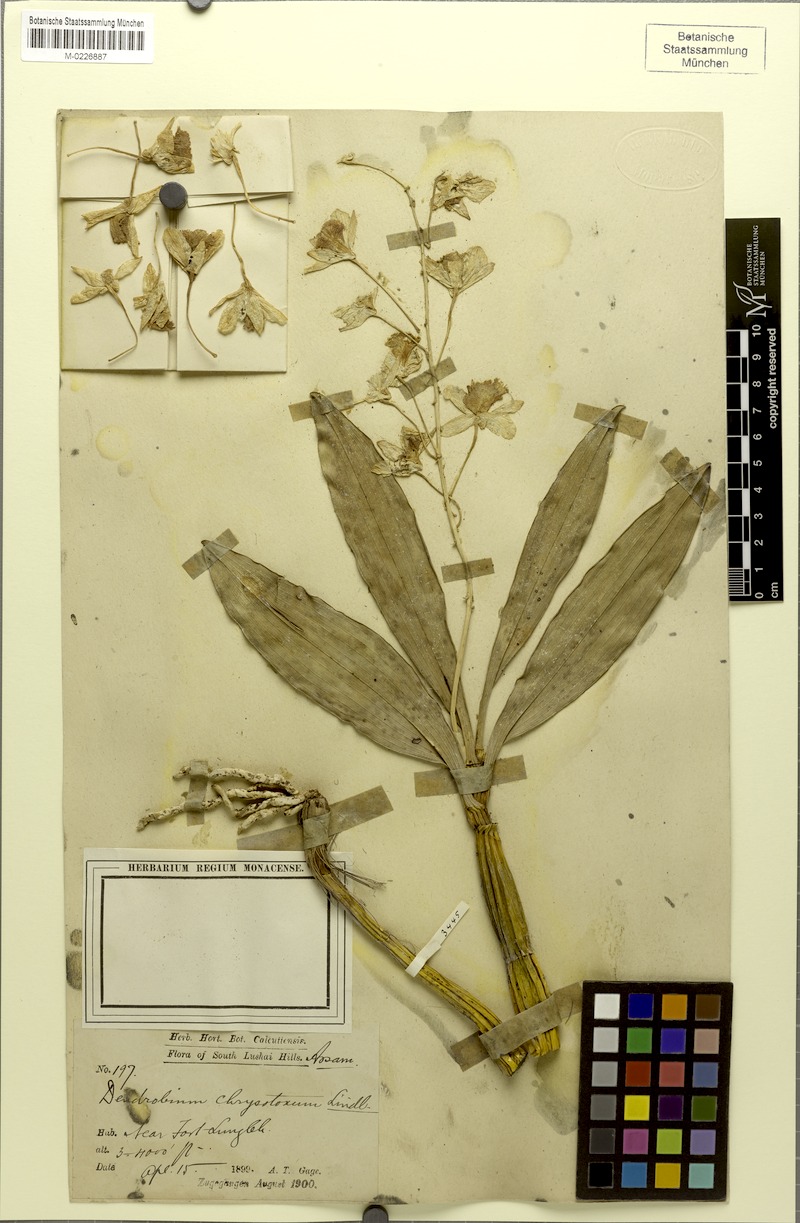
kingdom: Plantae
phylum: Tracheophyta
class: Liliopsida
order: Asparagales
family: Orchidaceae
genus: Dendrobium
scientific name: Dendrobium chrysotoxum
